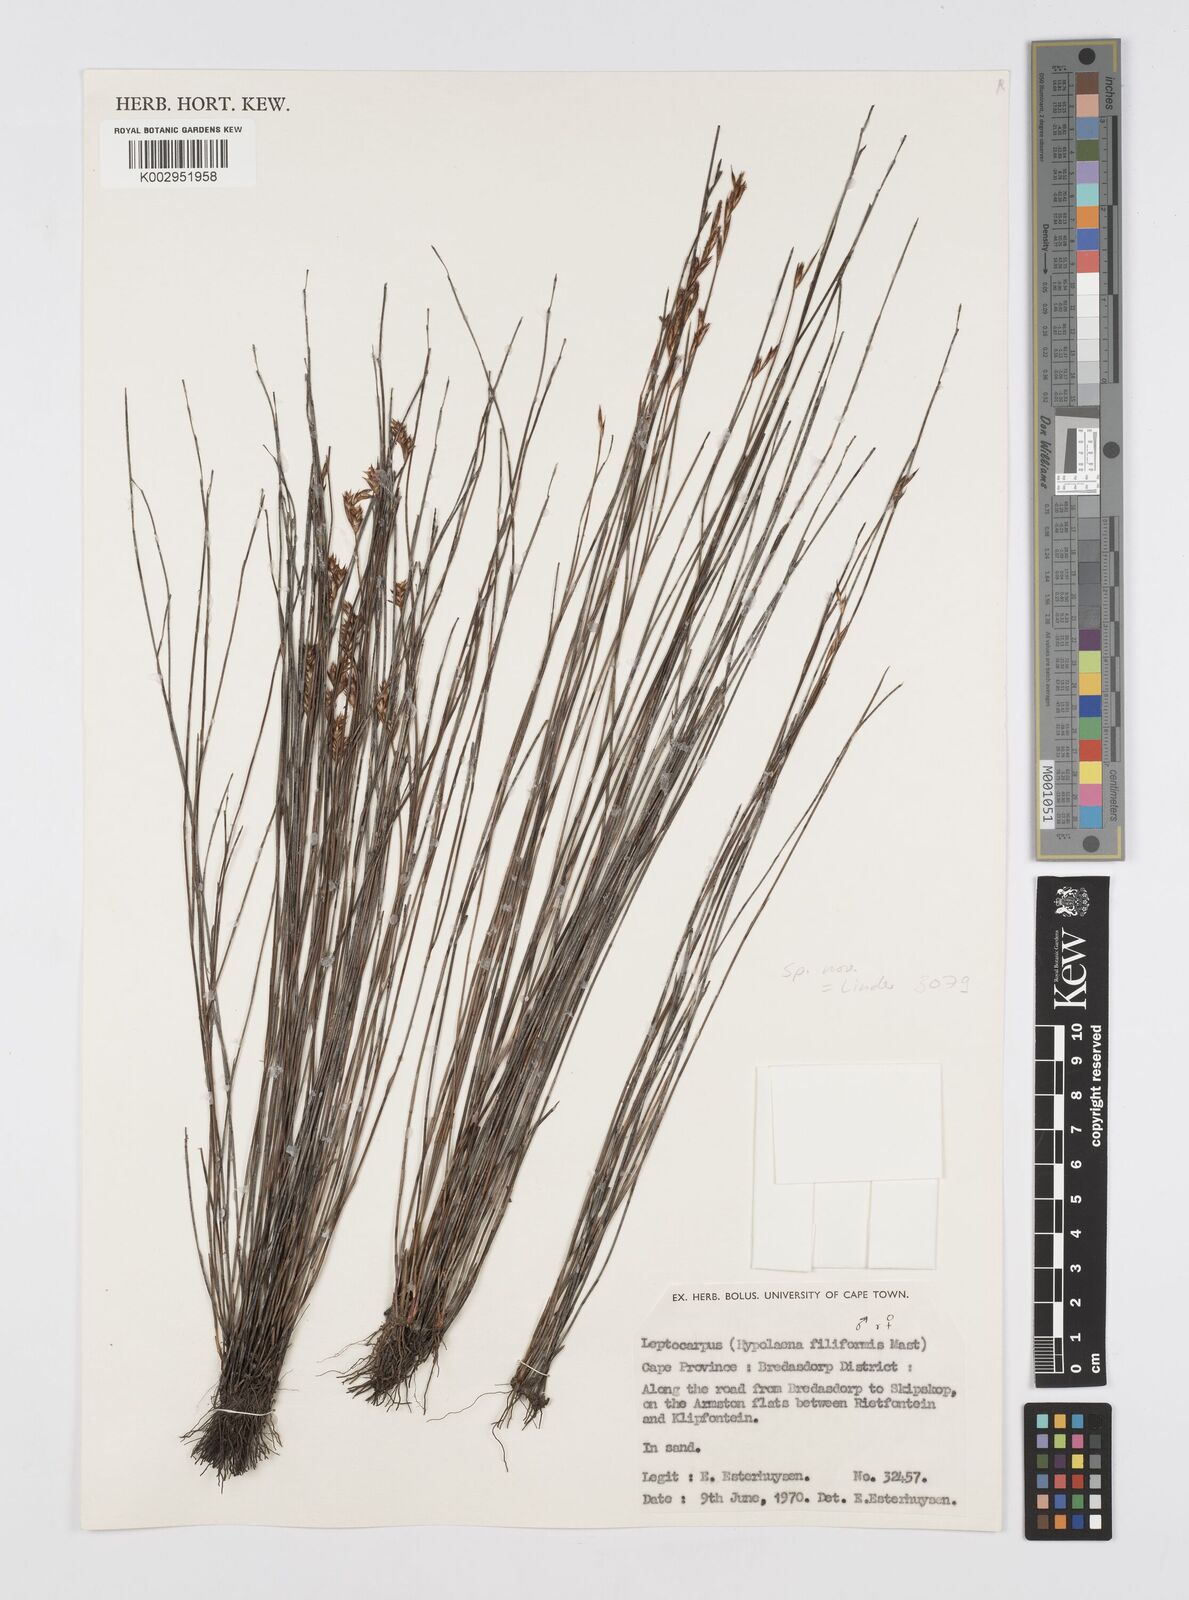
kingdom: Plantae
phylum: Tracheophyta
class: Liliopsida
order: Poales
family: Restionaceae
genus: Restio
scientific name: Restio filiformis
